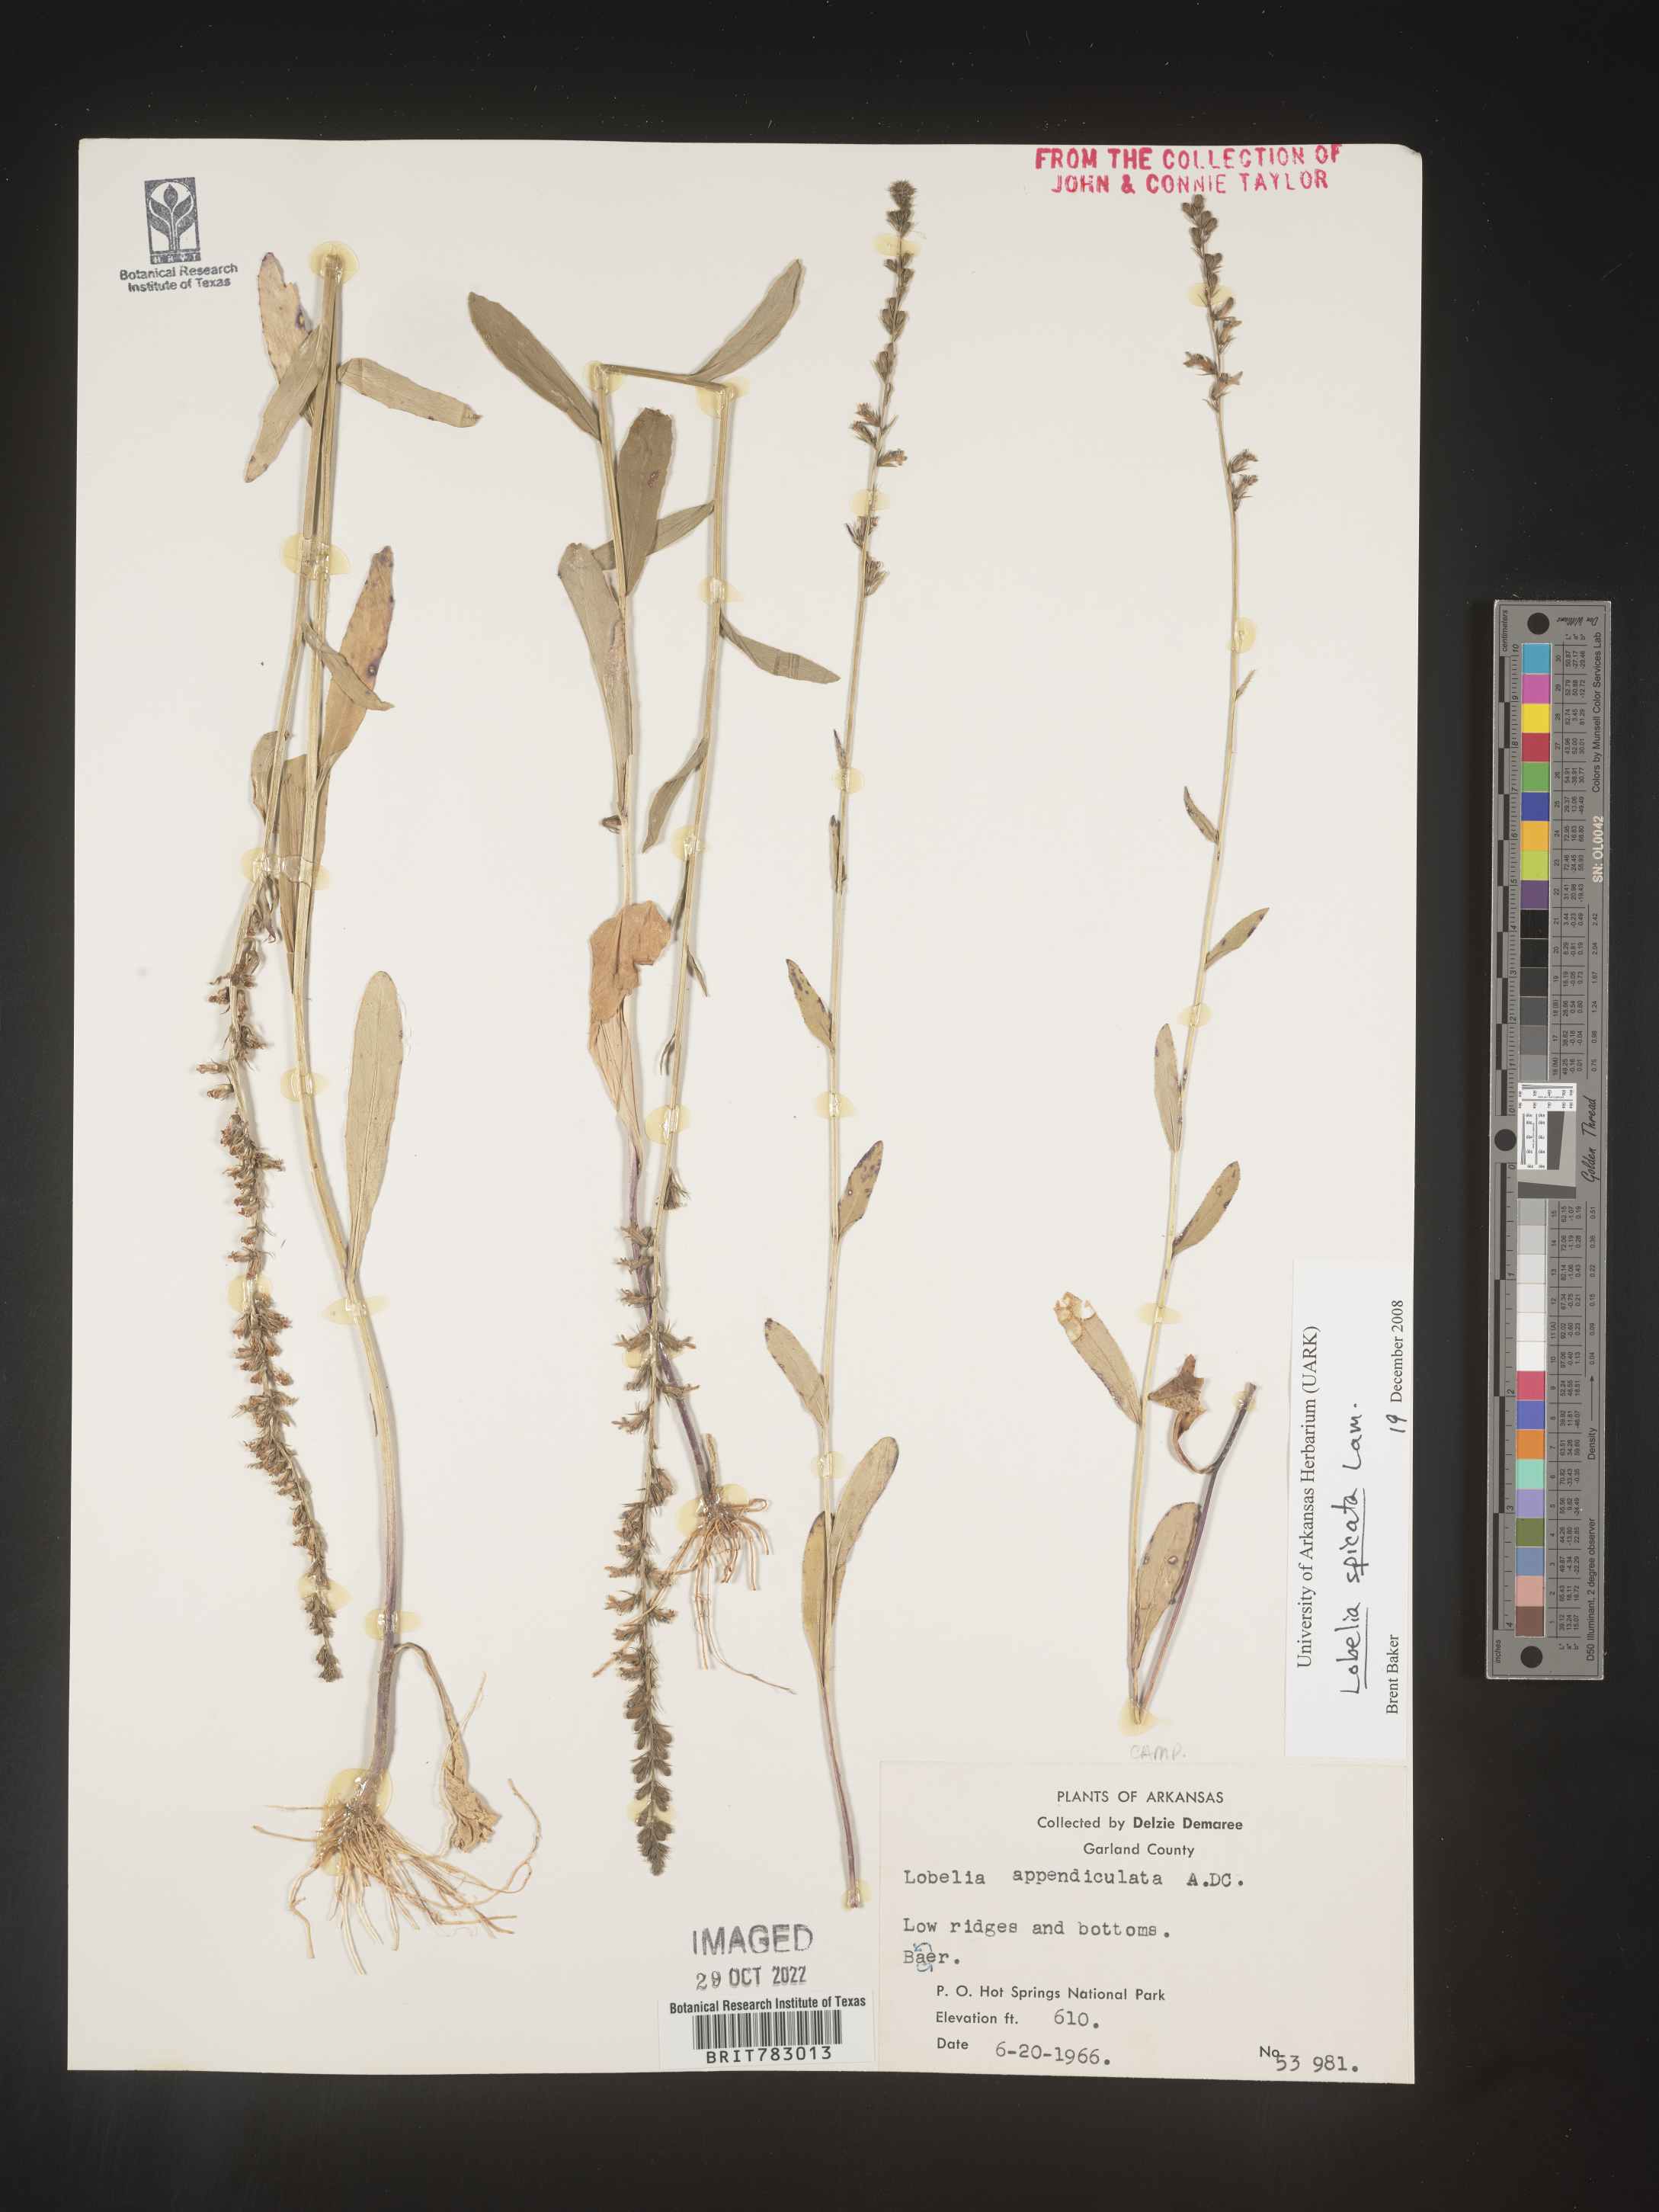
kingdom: Plantae
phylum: Tracheophyta
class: Magnoliopsida
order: Asterales
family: Campanulaceae
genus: Lobelia
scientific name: Lobelia spicata
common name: Pale-spike lobelia
